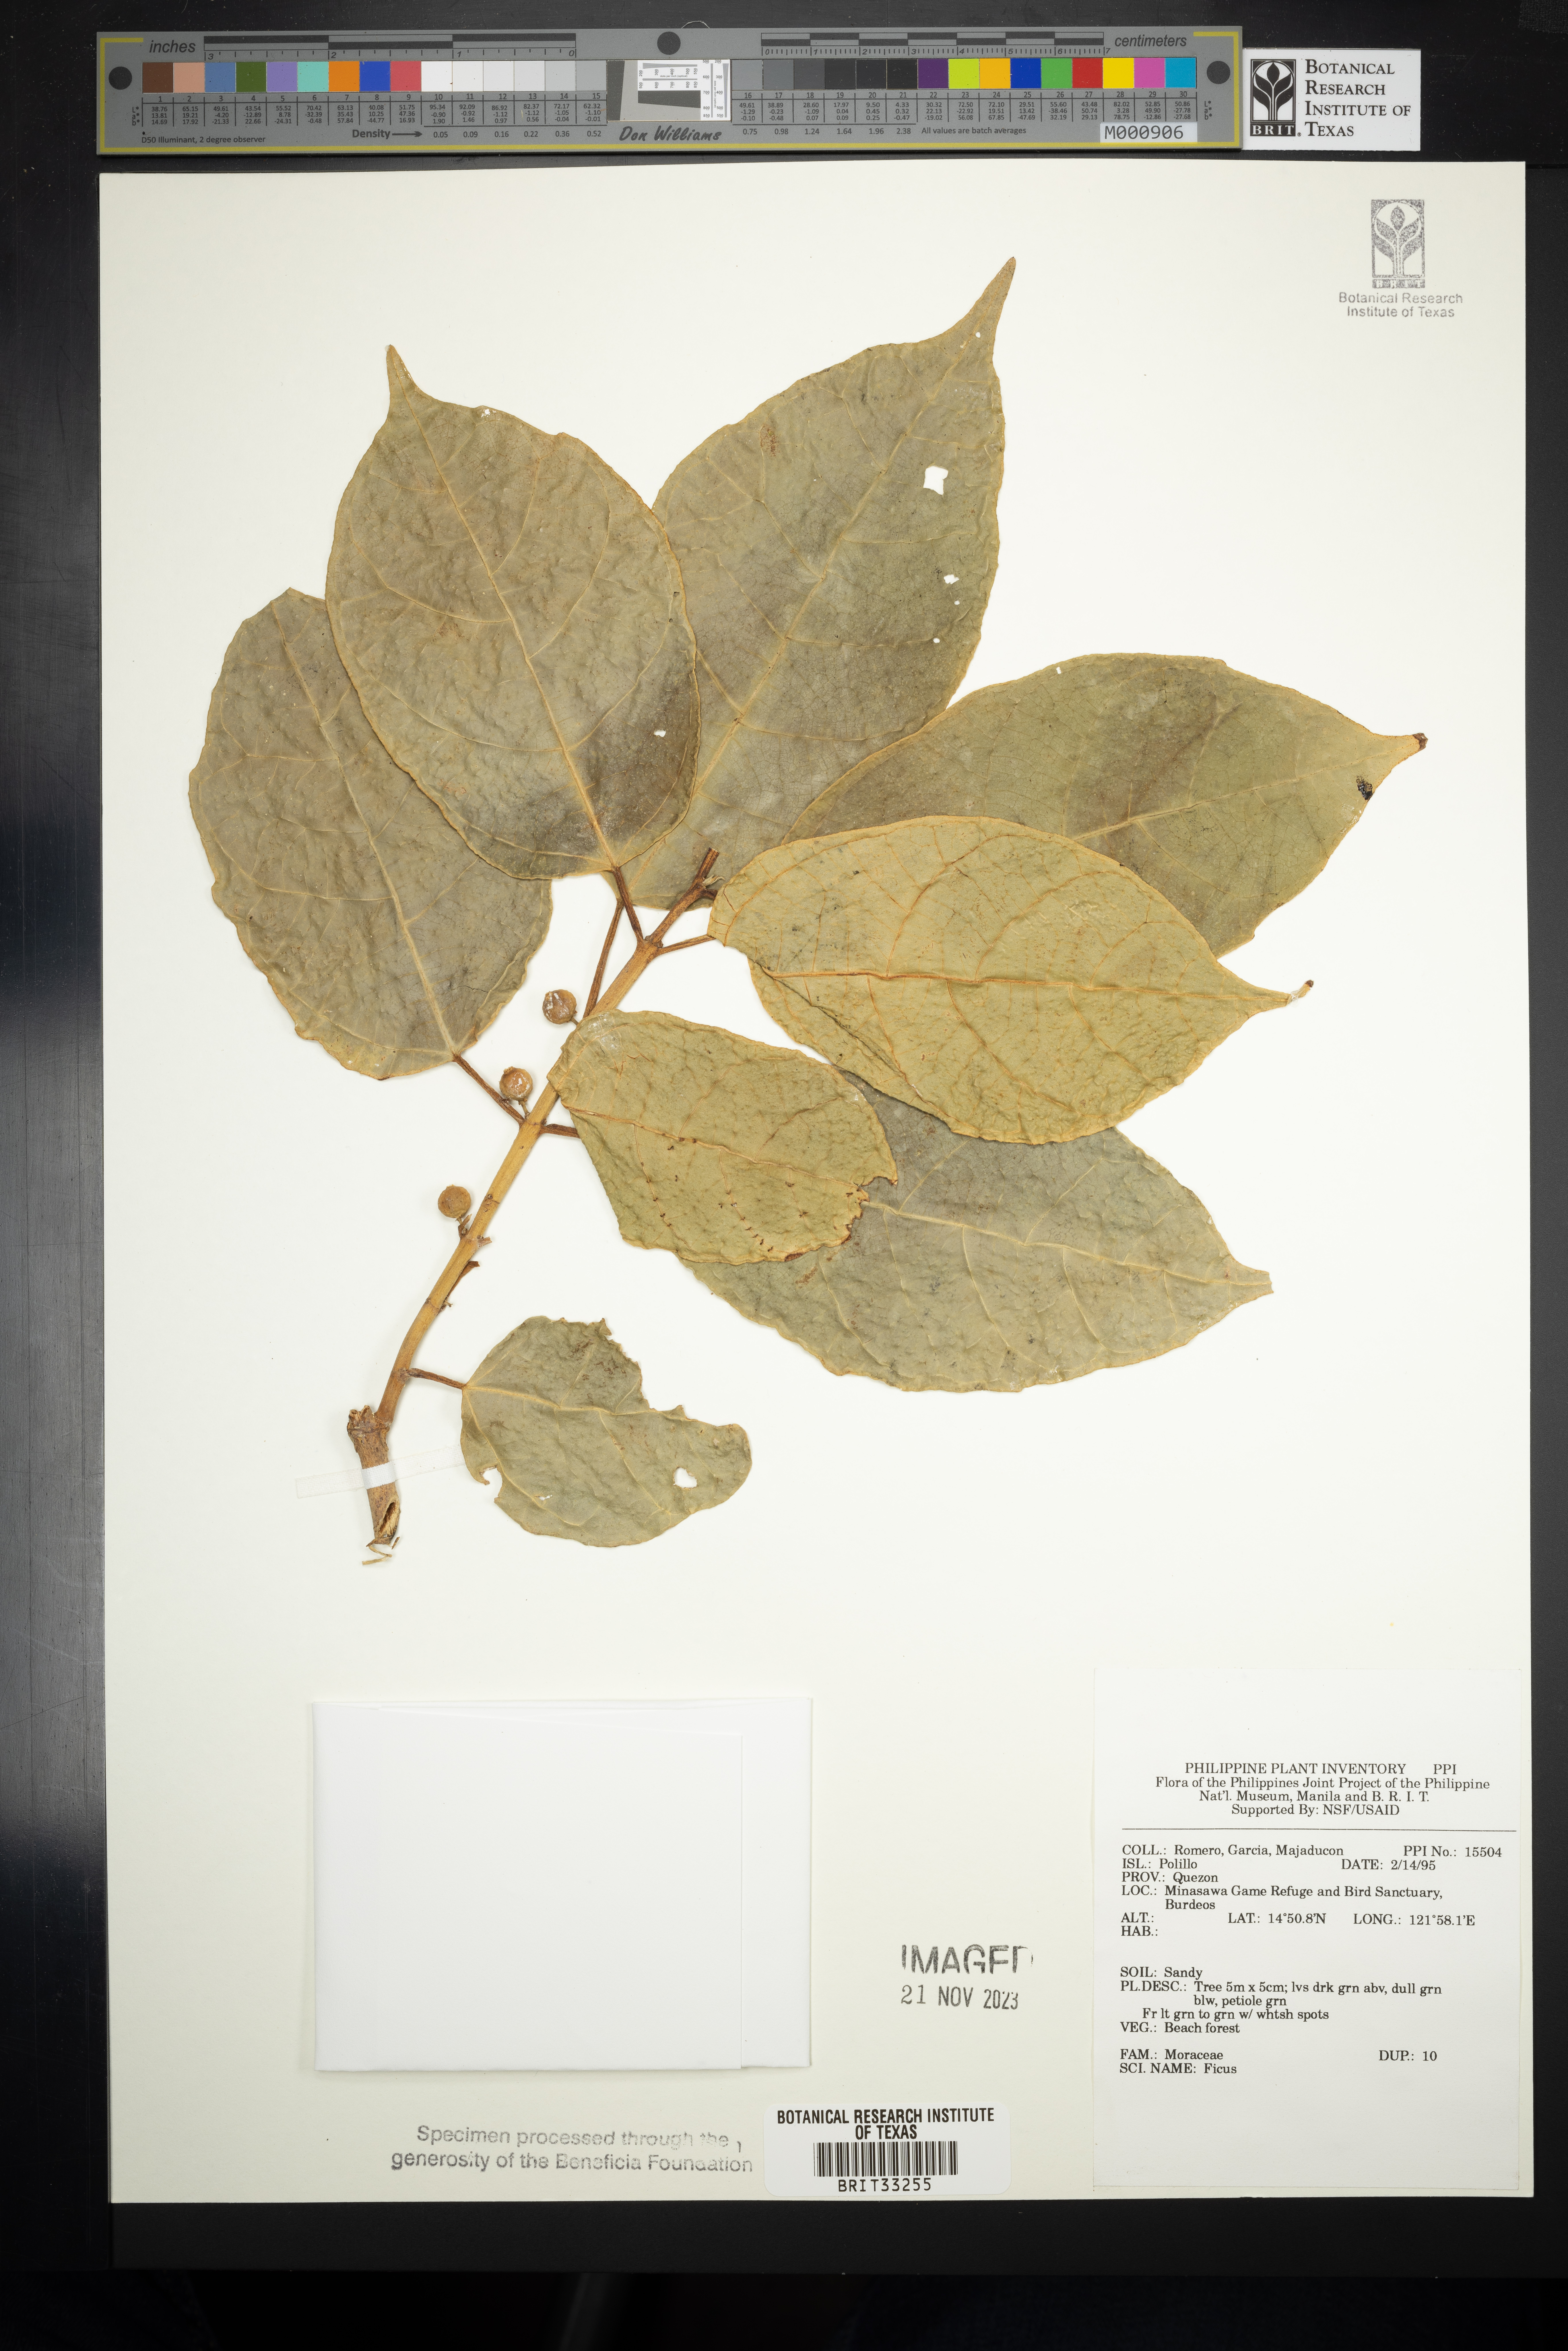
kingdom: Plantae
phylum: Tracheophyta
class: Magnoliopsida
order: Rosales
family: Moraceae
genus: Ficus
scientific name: Ficus
